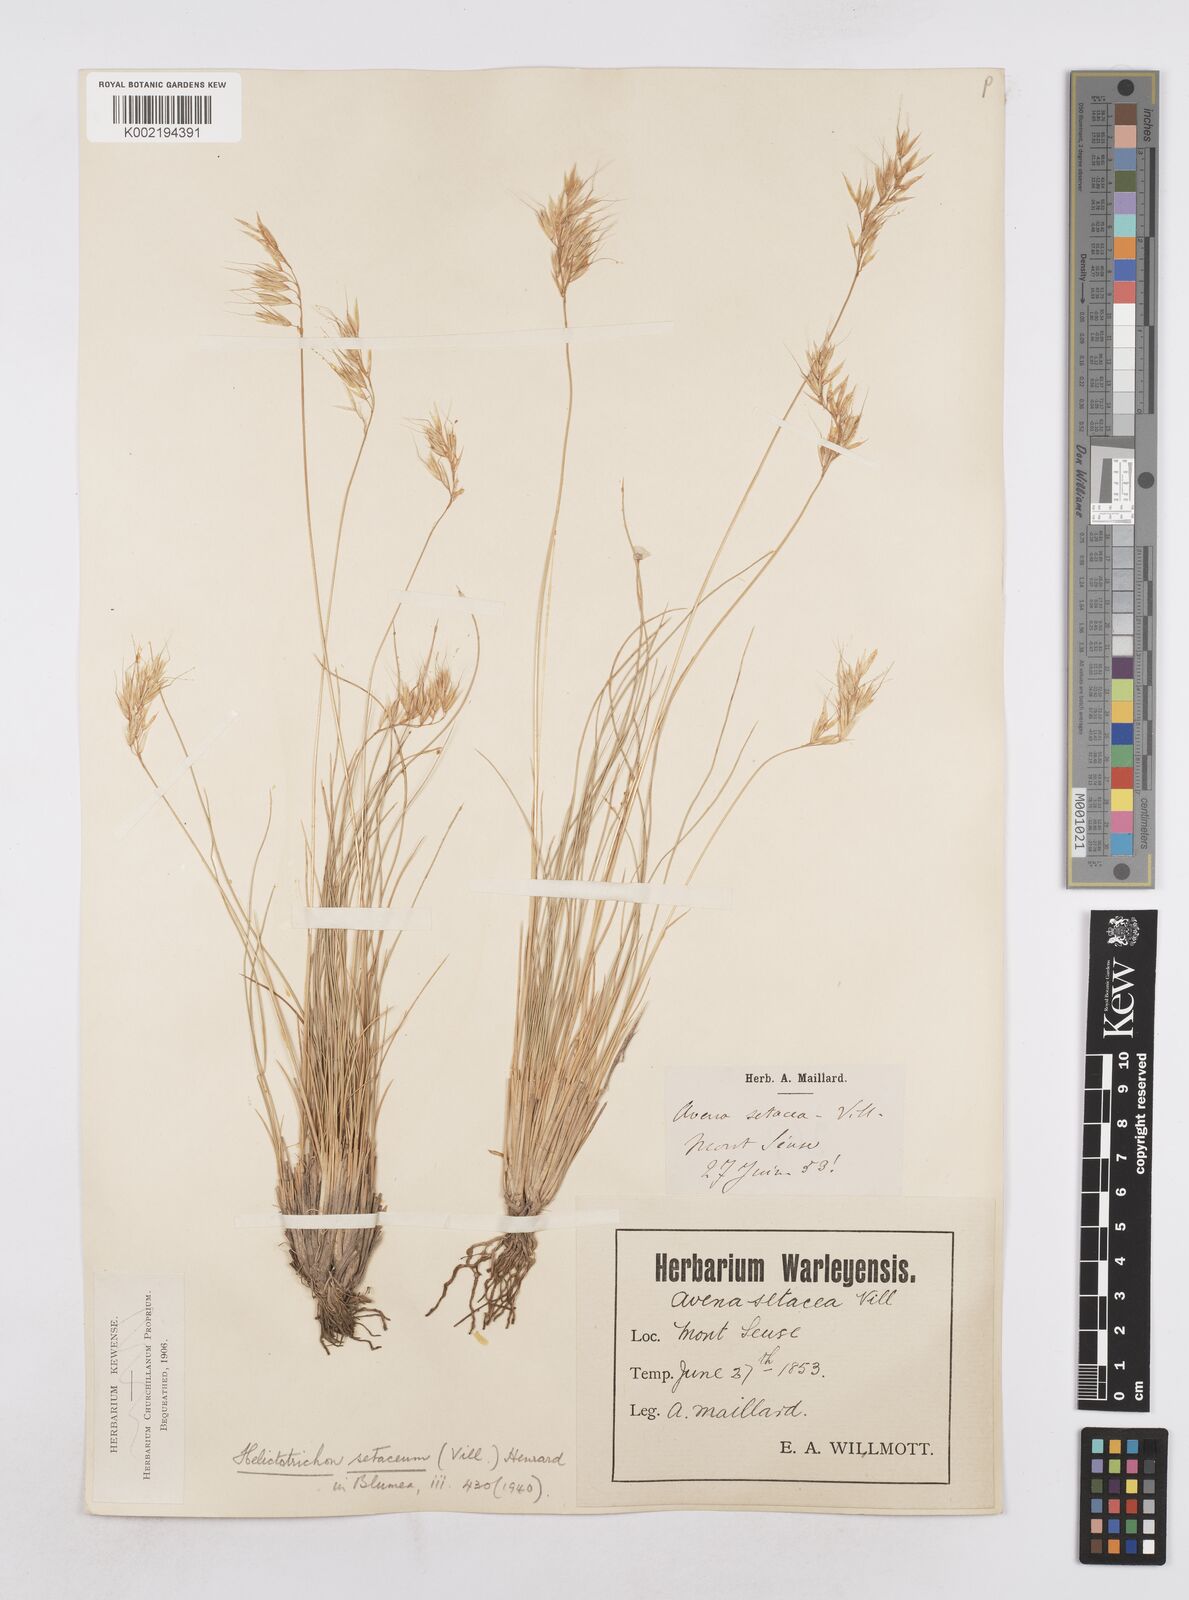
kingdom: Plantae
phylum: Tracheophyta
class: Liliopsida
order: Poales
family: Poaceae
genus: Helictotrichon
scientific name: Helictotrichon setaceum
